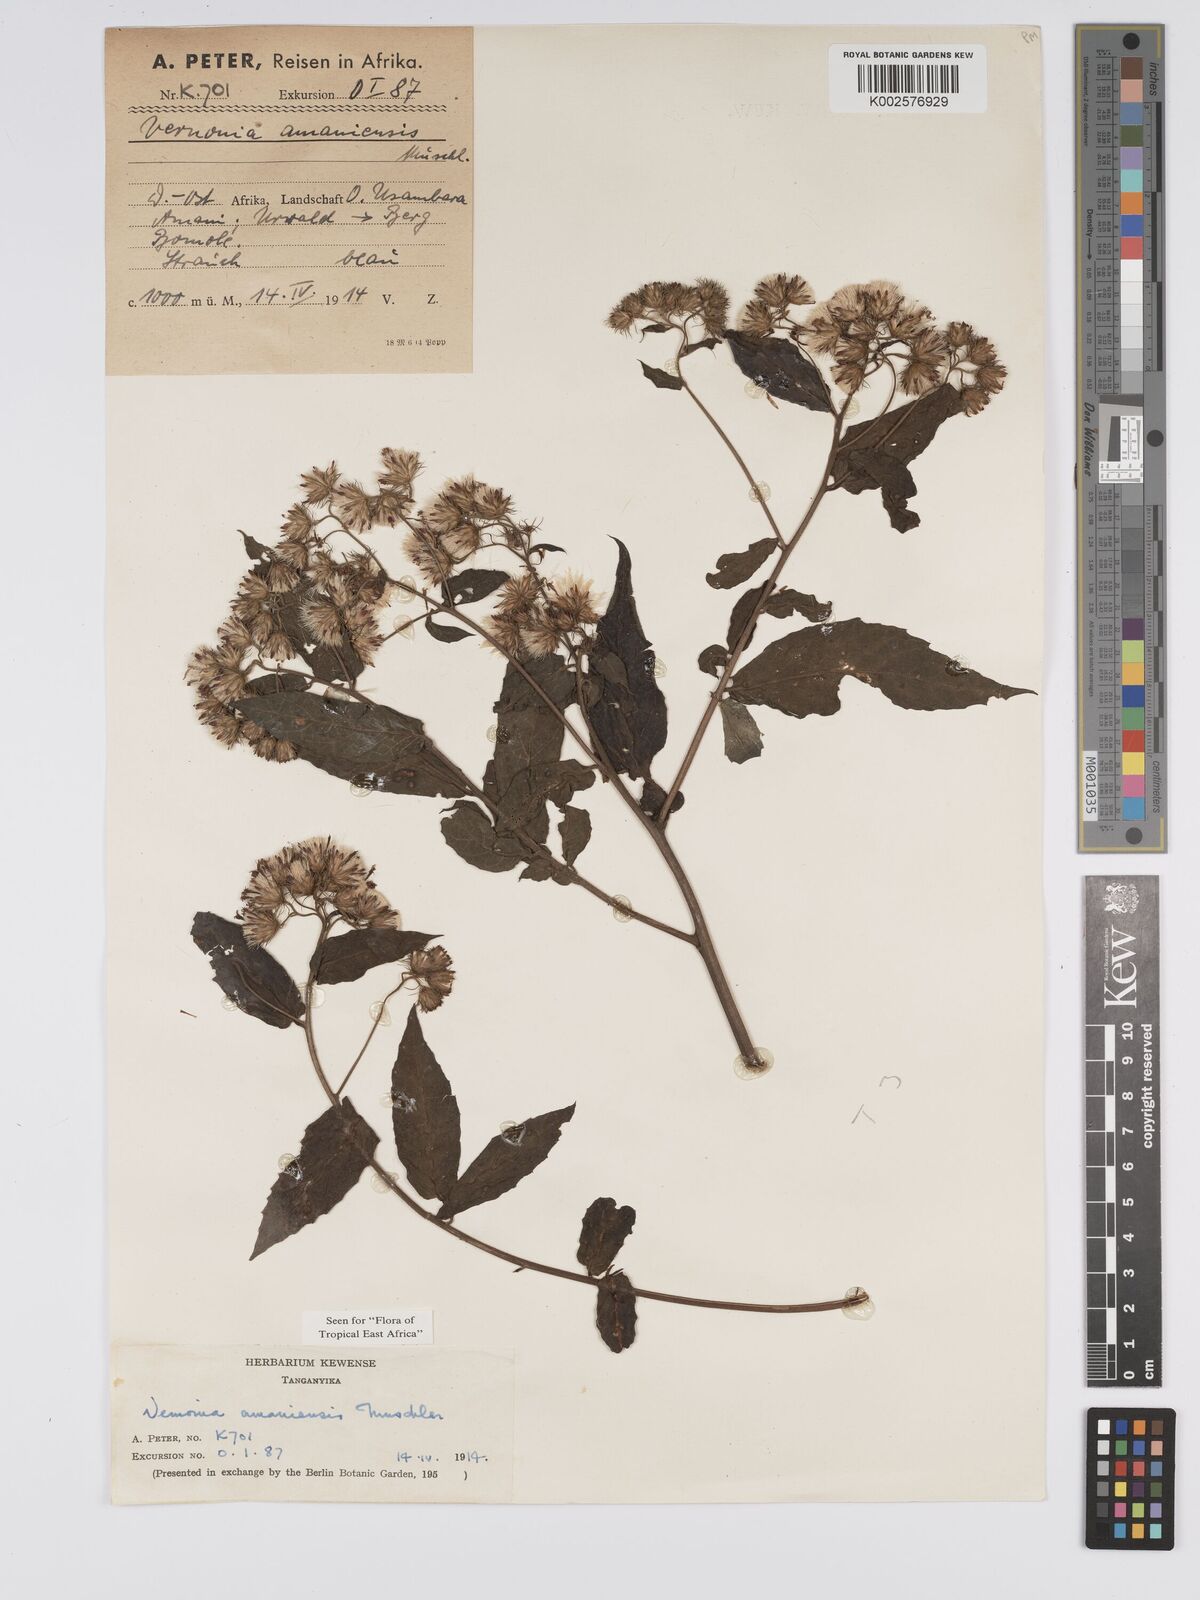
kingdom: Plantae
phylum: Tracheophyta
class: Magnoliopsida
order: Asterales
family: Asteraceae
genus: Jeffreycia
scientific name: Jeffreycia amaniensis
